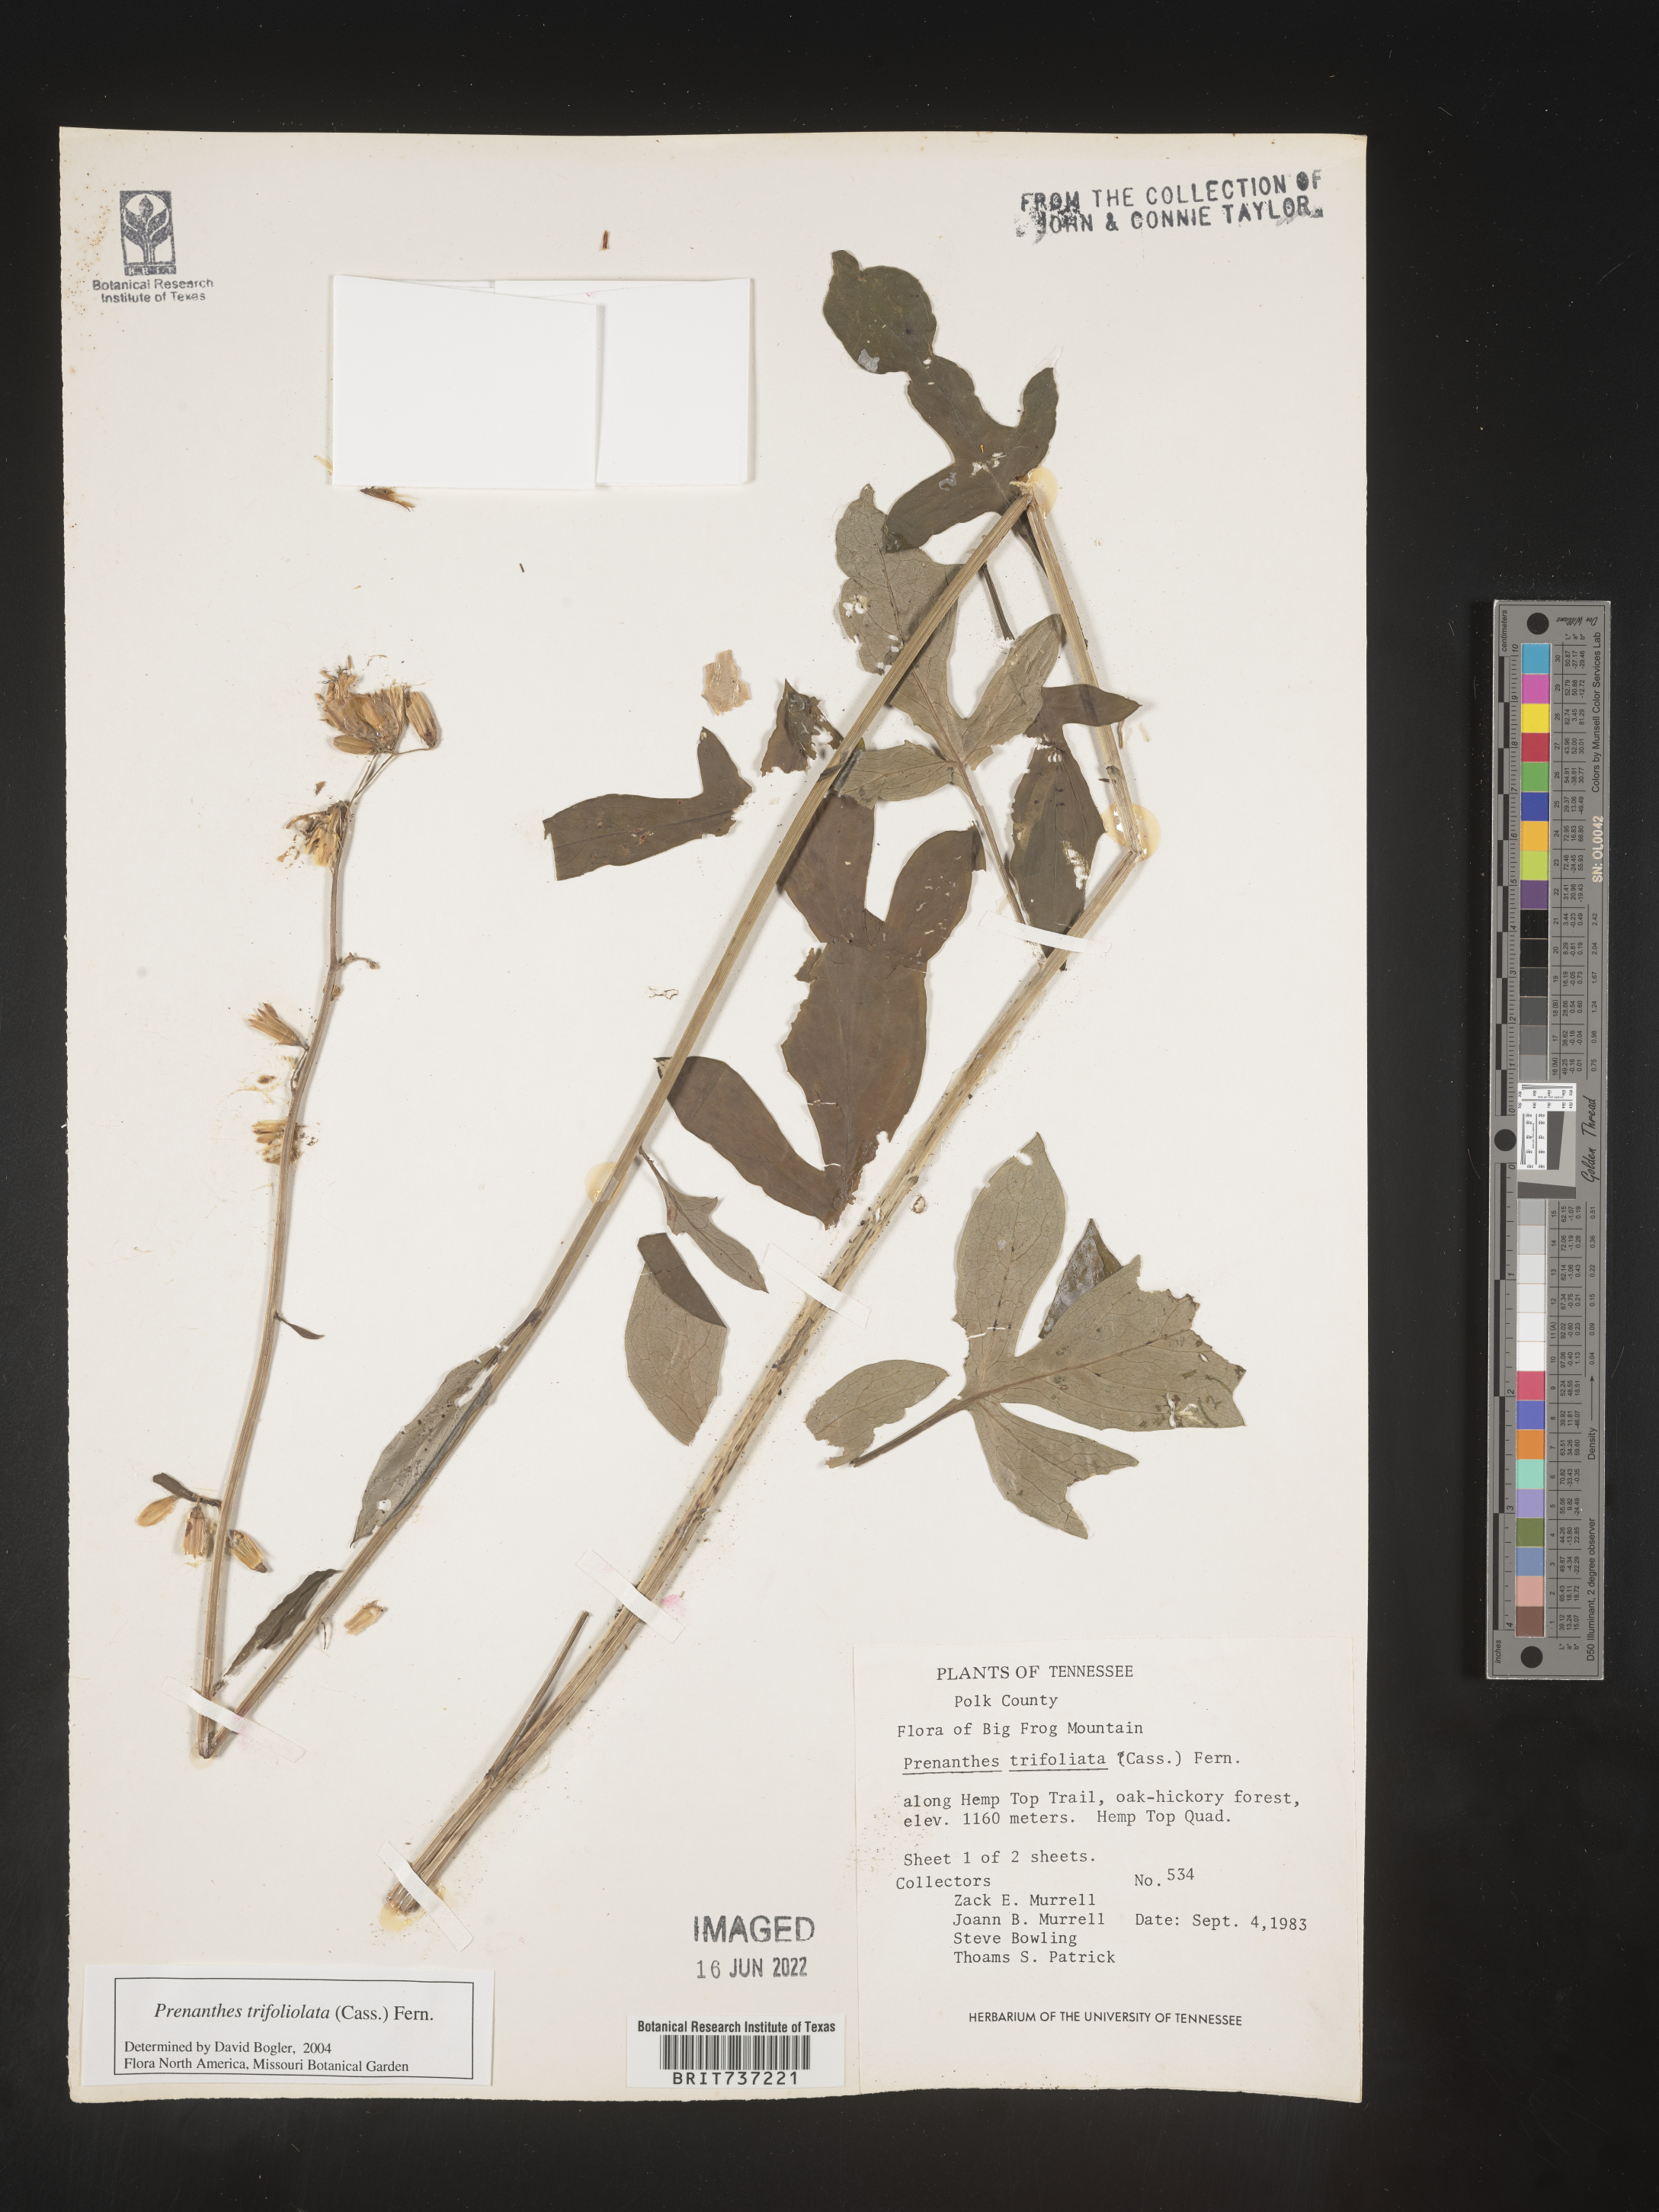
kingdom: Plantae
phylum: Tracheophyta
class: Magnoliopsida
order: Asterales
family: Asteraceae
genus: Nabalus
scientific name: Nabalus trifoliolatus
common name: Gall-of-the-earth
